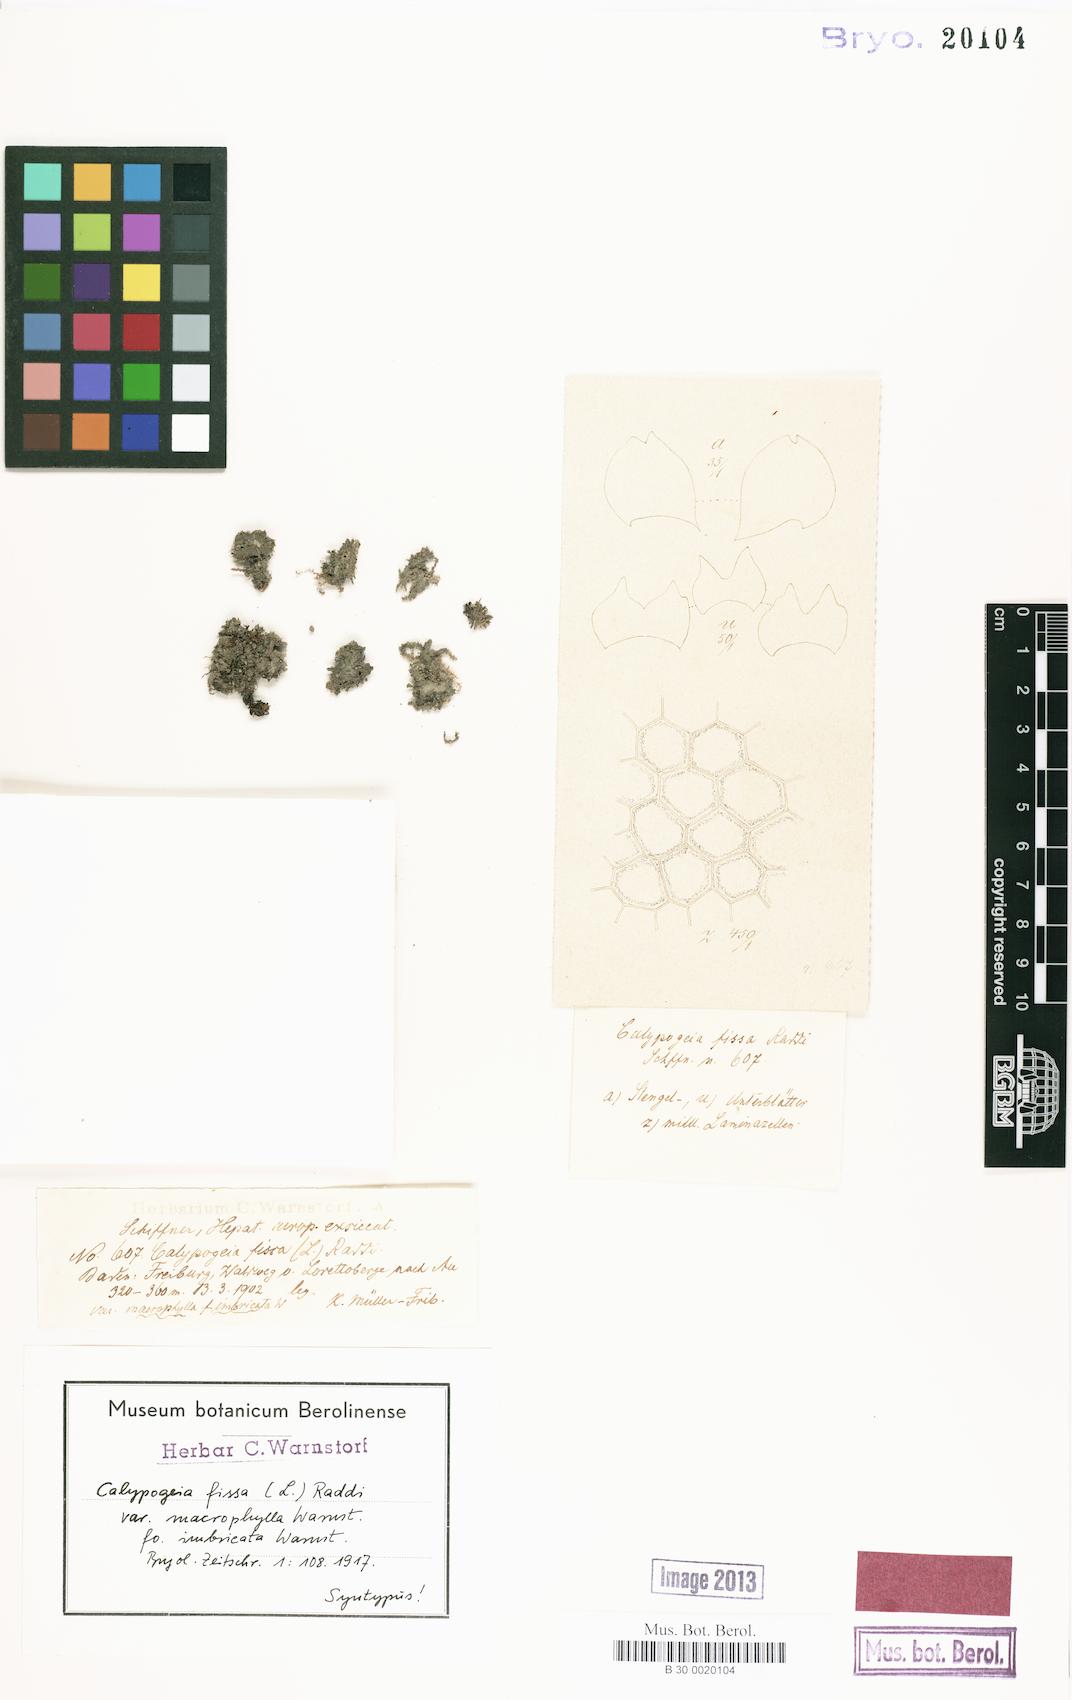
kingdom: Plantae
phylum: Marchantiophyta
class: Jungermanniopsida
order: Jungermanniales
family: Calypogeiaceae
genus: Calypogeia
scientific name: Calypogeia fissa
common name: Common pouchwort
